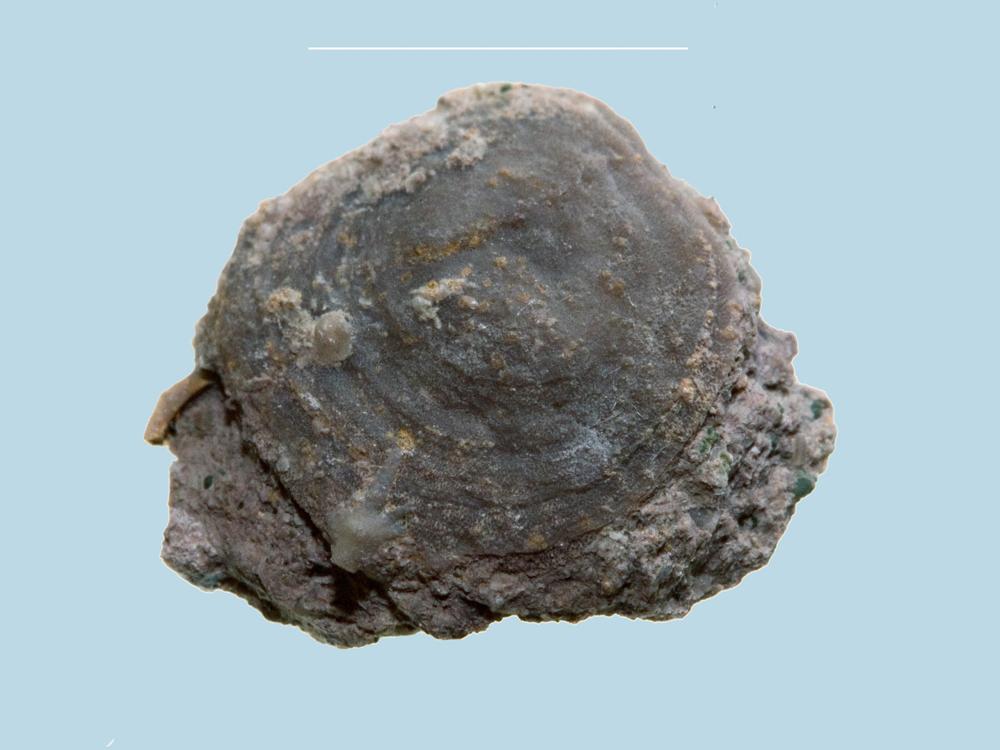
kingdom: Animalia
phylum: Brachiopoda
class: Craniata
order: Craniida
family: Craniidae
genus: Pseudocrania
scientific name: Pseudocrania
